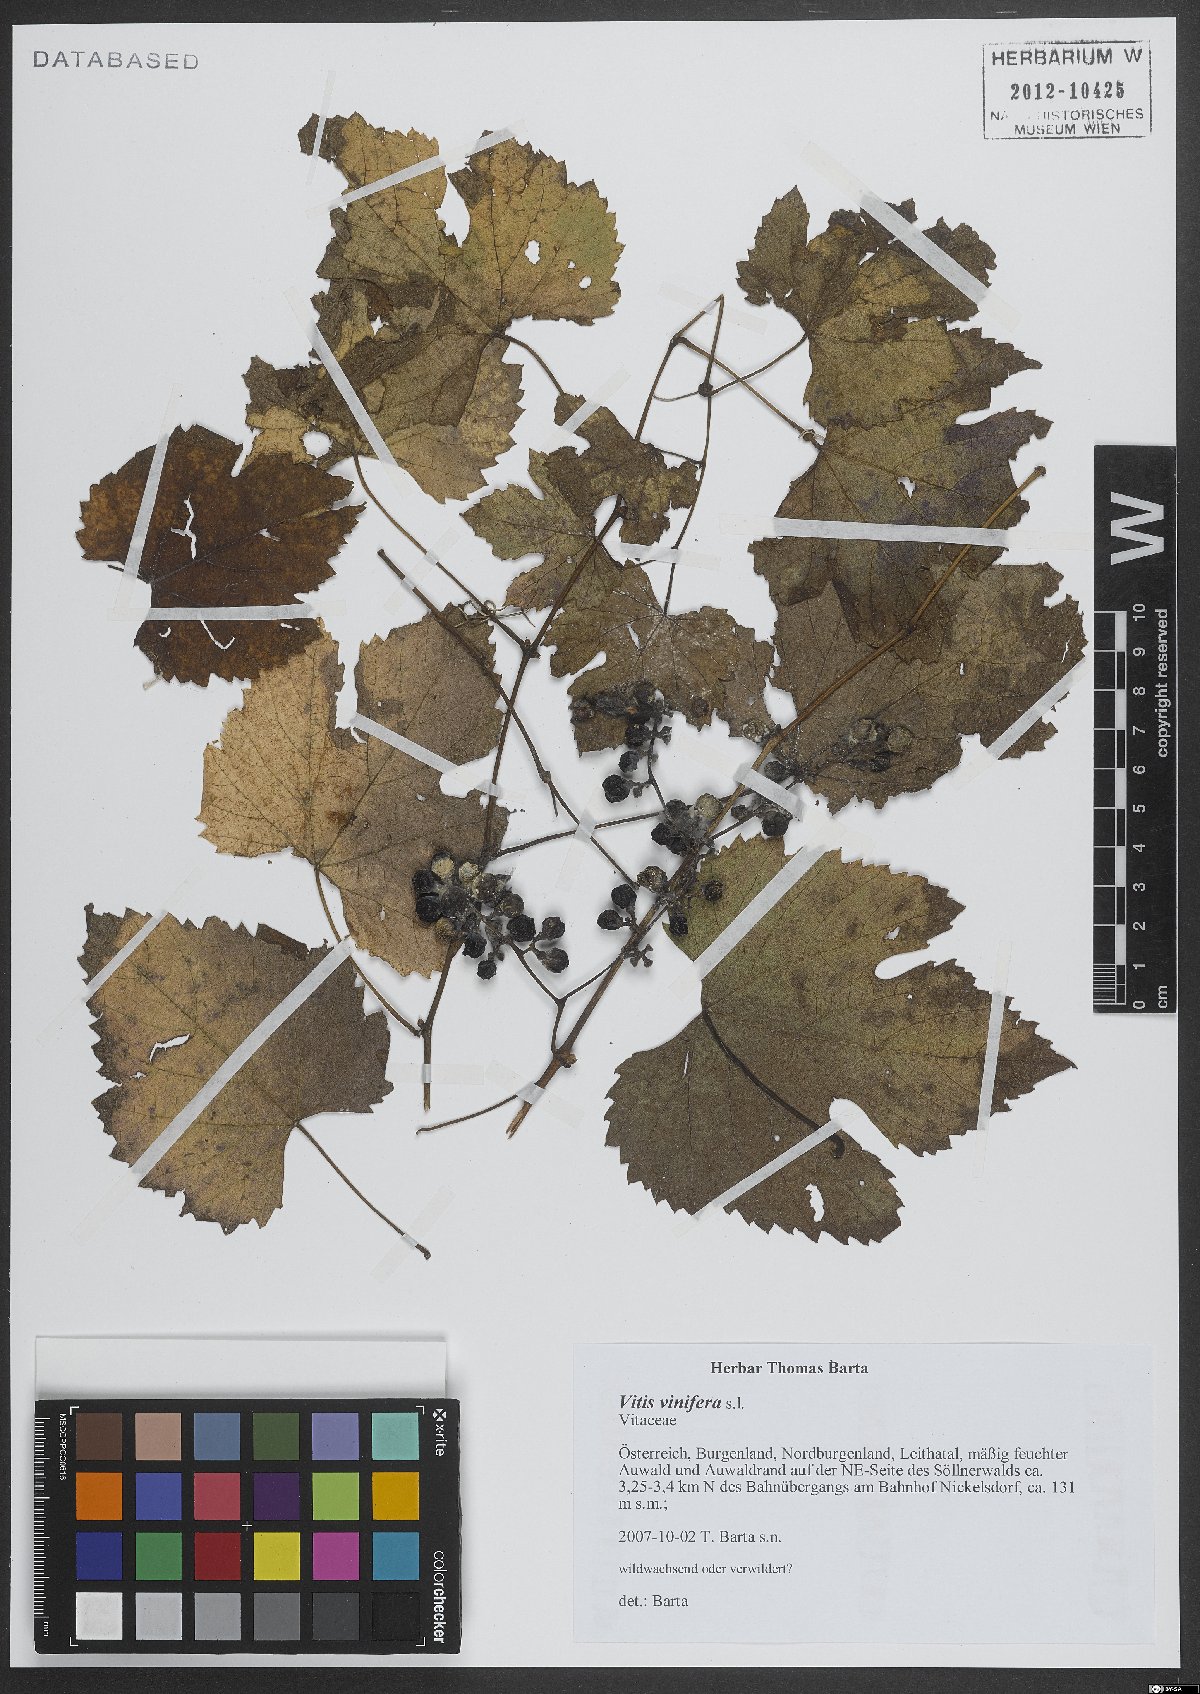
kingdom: Plantae
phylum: Tracheophyta
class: Magnoliopsida
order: Vitales
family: Vitaceae
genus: Vitis
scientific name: Vitis vinifera
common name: Grape-vine
